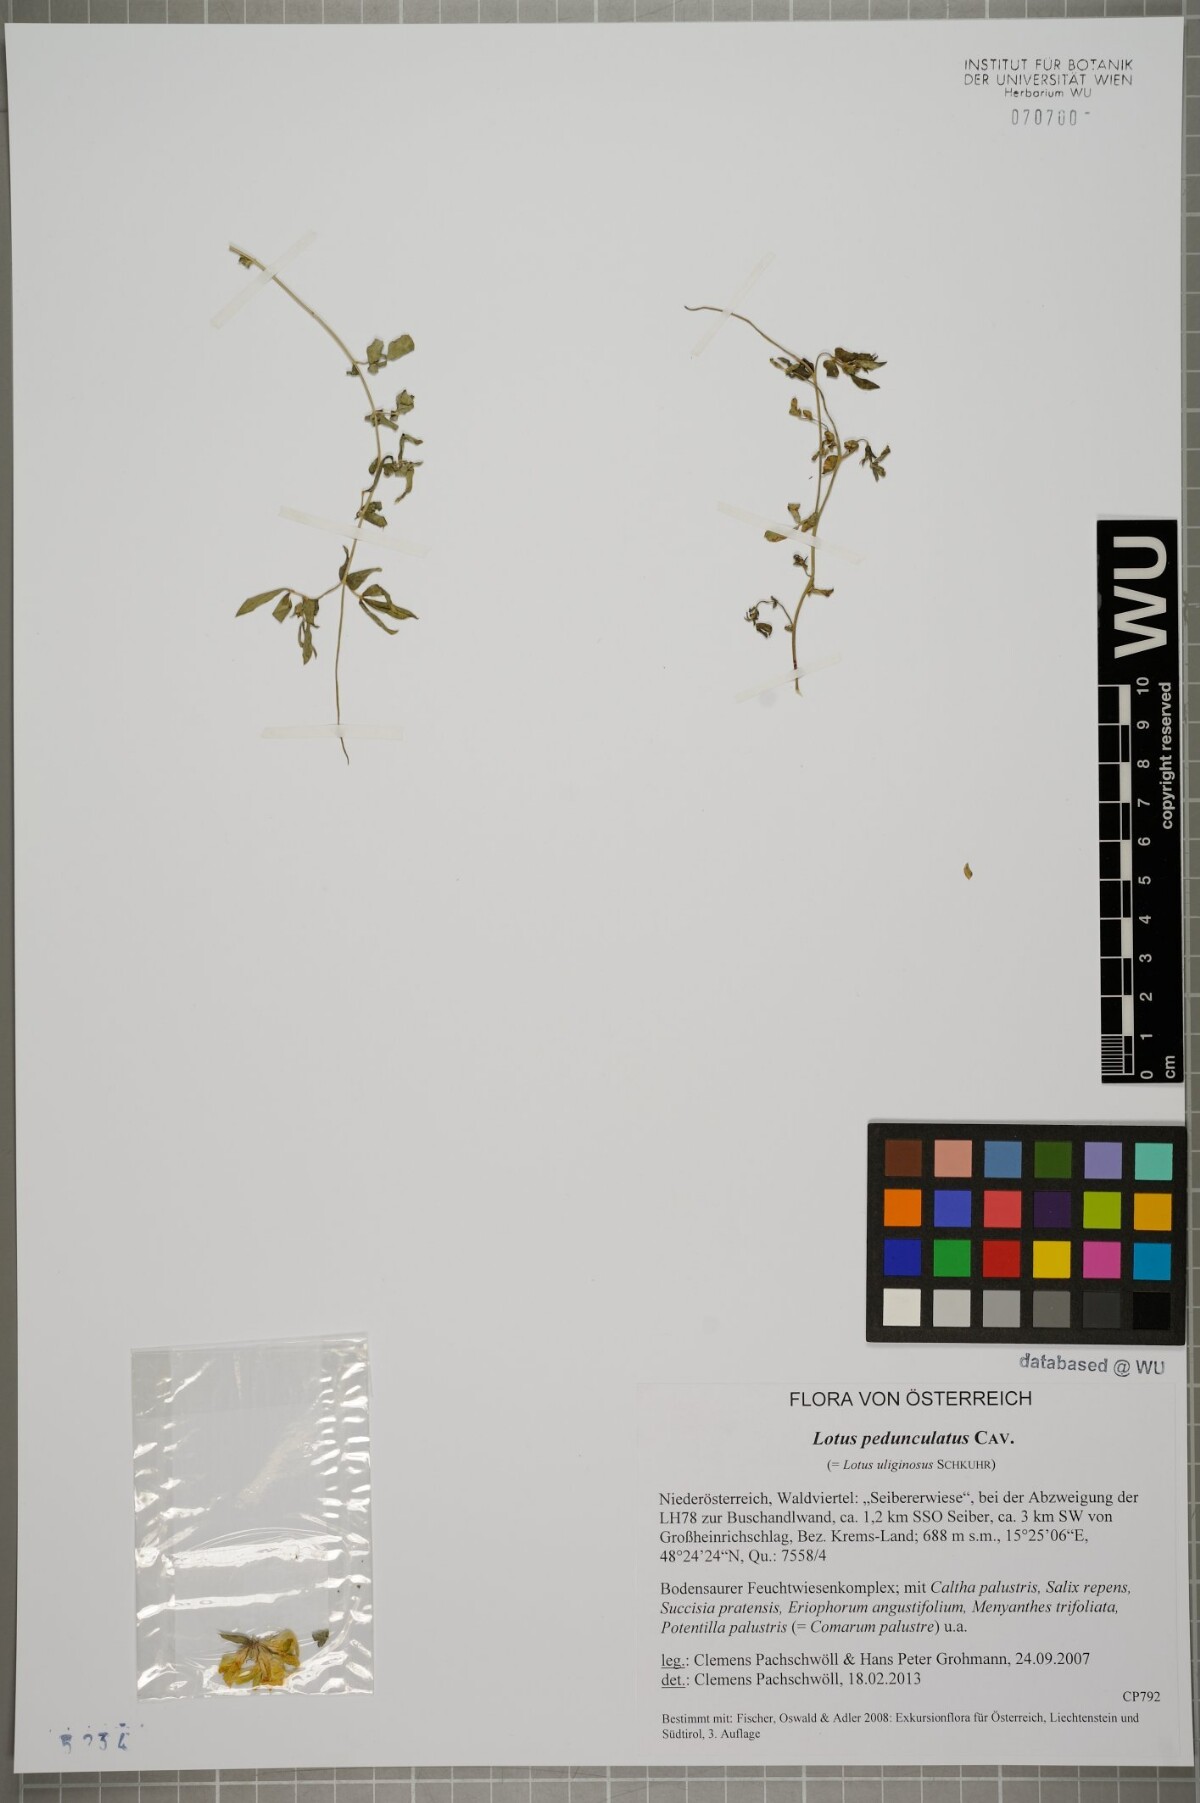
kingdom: Plantae
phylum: Tracheophyta
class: Magnoliopsida
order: Fabales
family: Fabaceae
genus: Lotus
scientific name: Lotus pedunculatus
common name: Greater birdsfoot-trefoil
